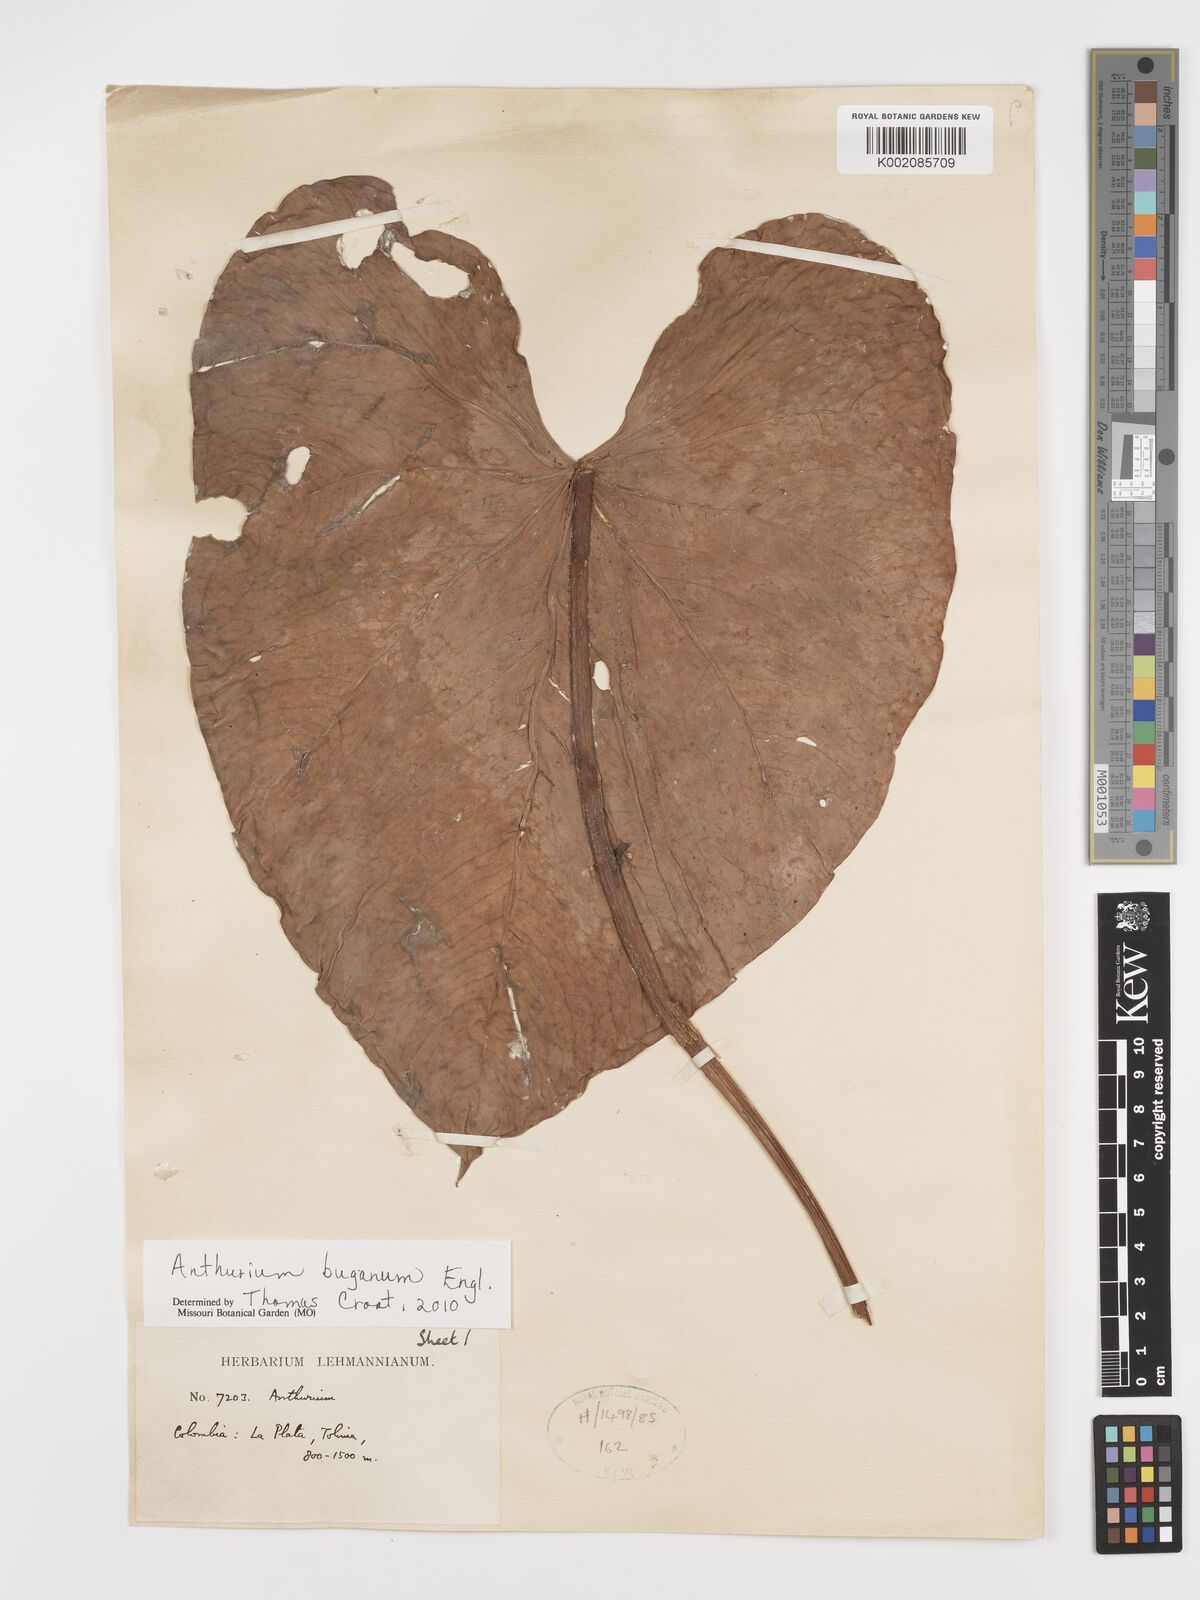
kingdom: Plantae
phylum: Tracheophyta
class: Liliopsida
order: Alismatales
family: Araceae
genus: Anthurium
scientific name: Anthurium buganum
